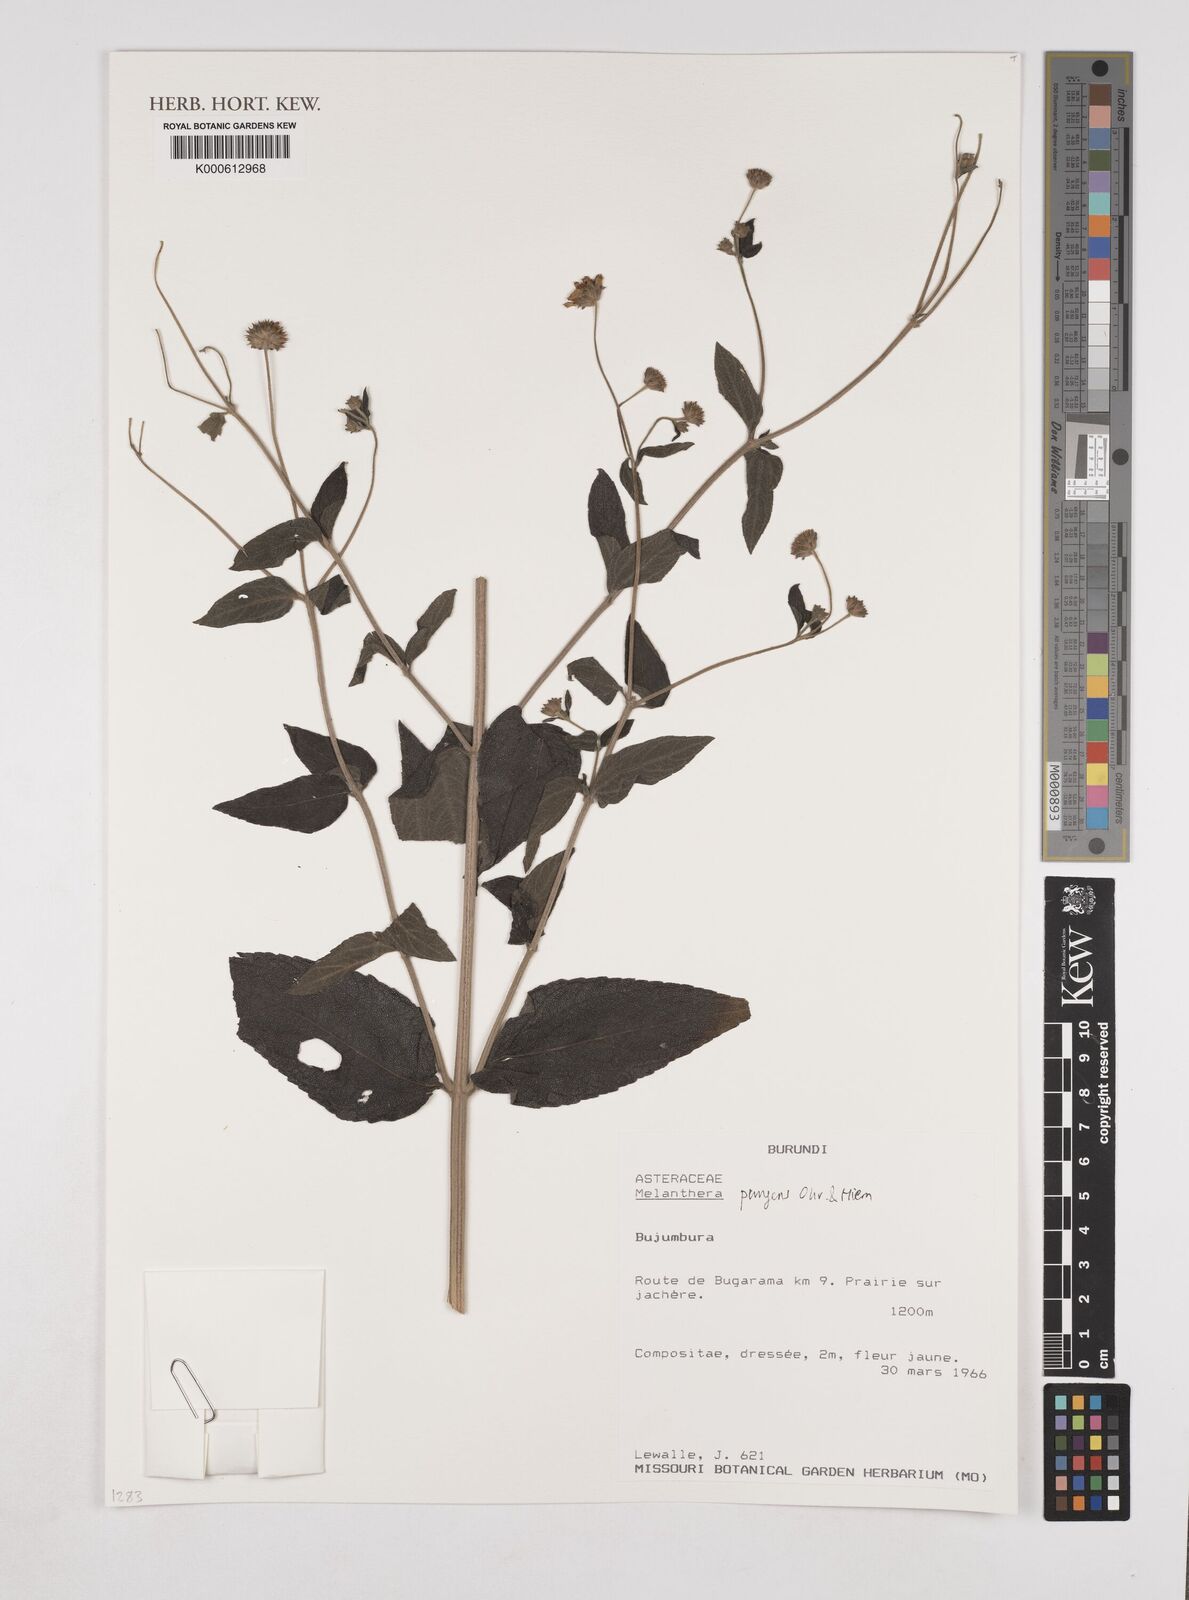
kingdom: Plantae
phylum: Tracheophyta
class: Magnoliopsida
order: Asterales
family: Asteraceae
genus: Lipotriche
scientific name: Lipotriche pungens
